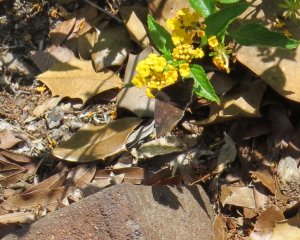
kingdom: Animalia
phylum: Arthropoda
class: Insecta
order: Lepidoptera
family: Hesperiidae
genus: Erynnis
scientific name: Erynnis zarucco
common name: Zarucco Duskywing
